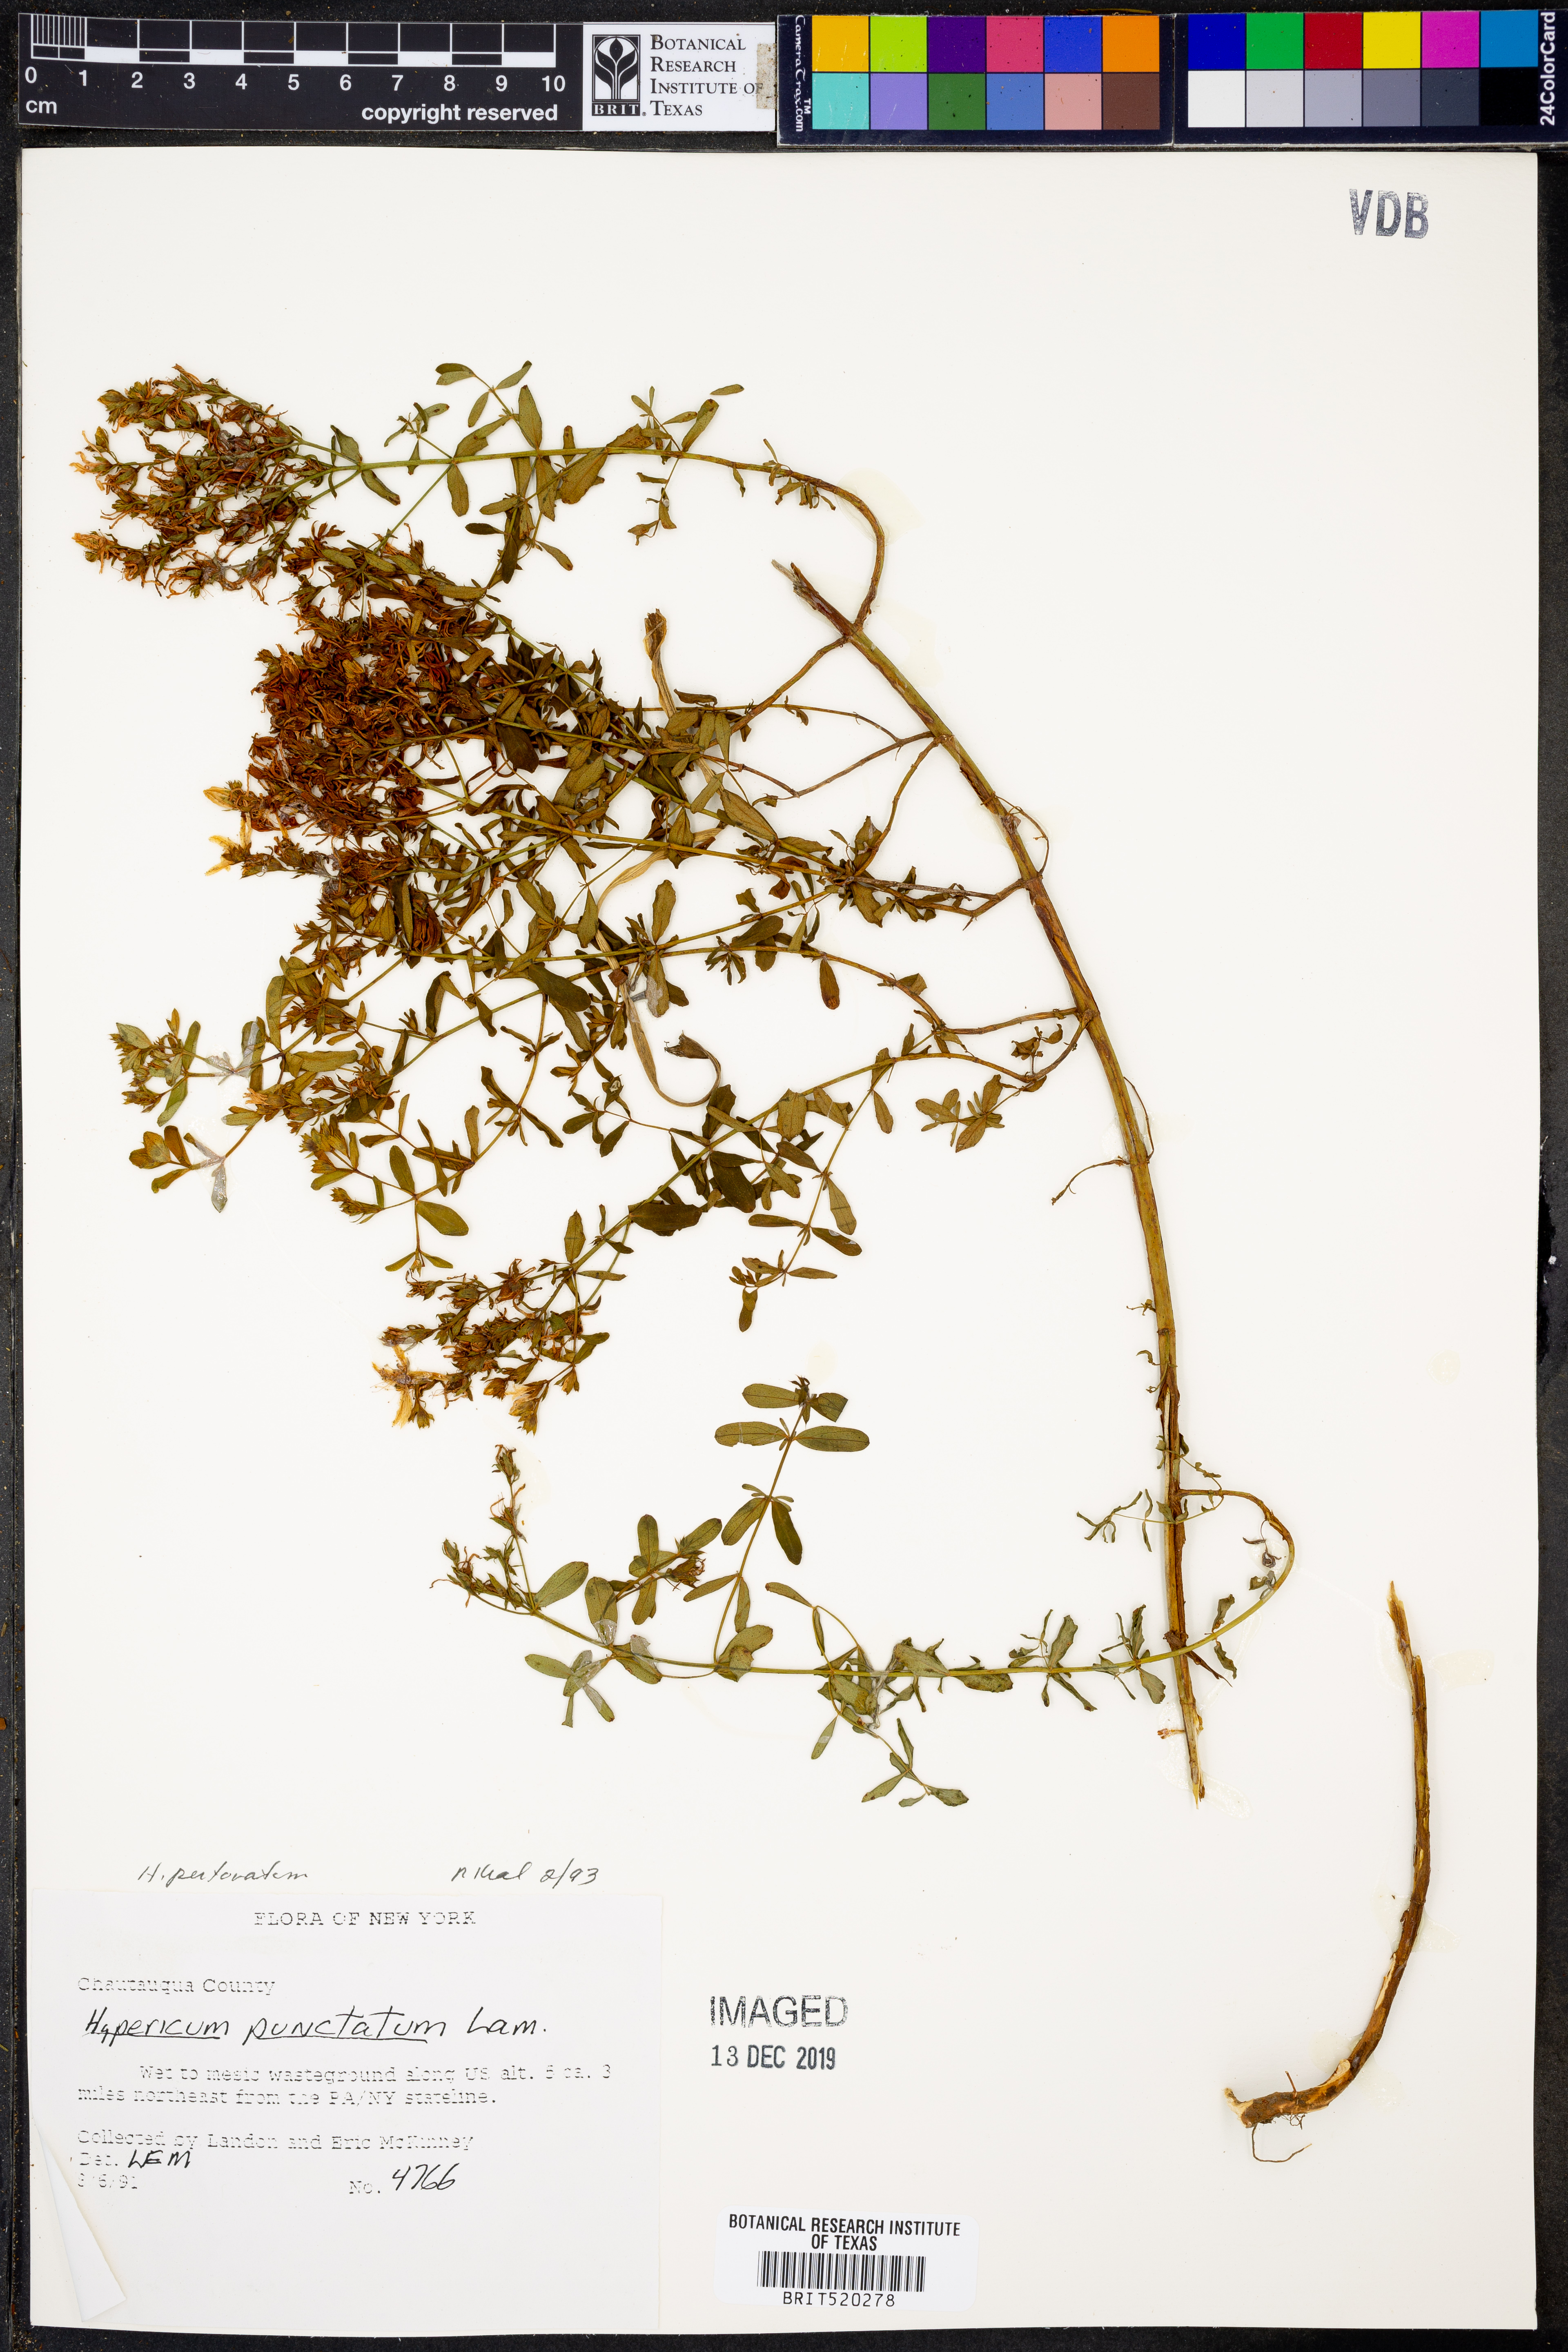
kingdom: Plantae
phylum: Tracheophyta
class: Magnoliopsida
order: Malpighiales
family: Hypericaceae
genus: Hypericum
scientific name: Hypericum perforatum
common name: Common st. johnswort
